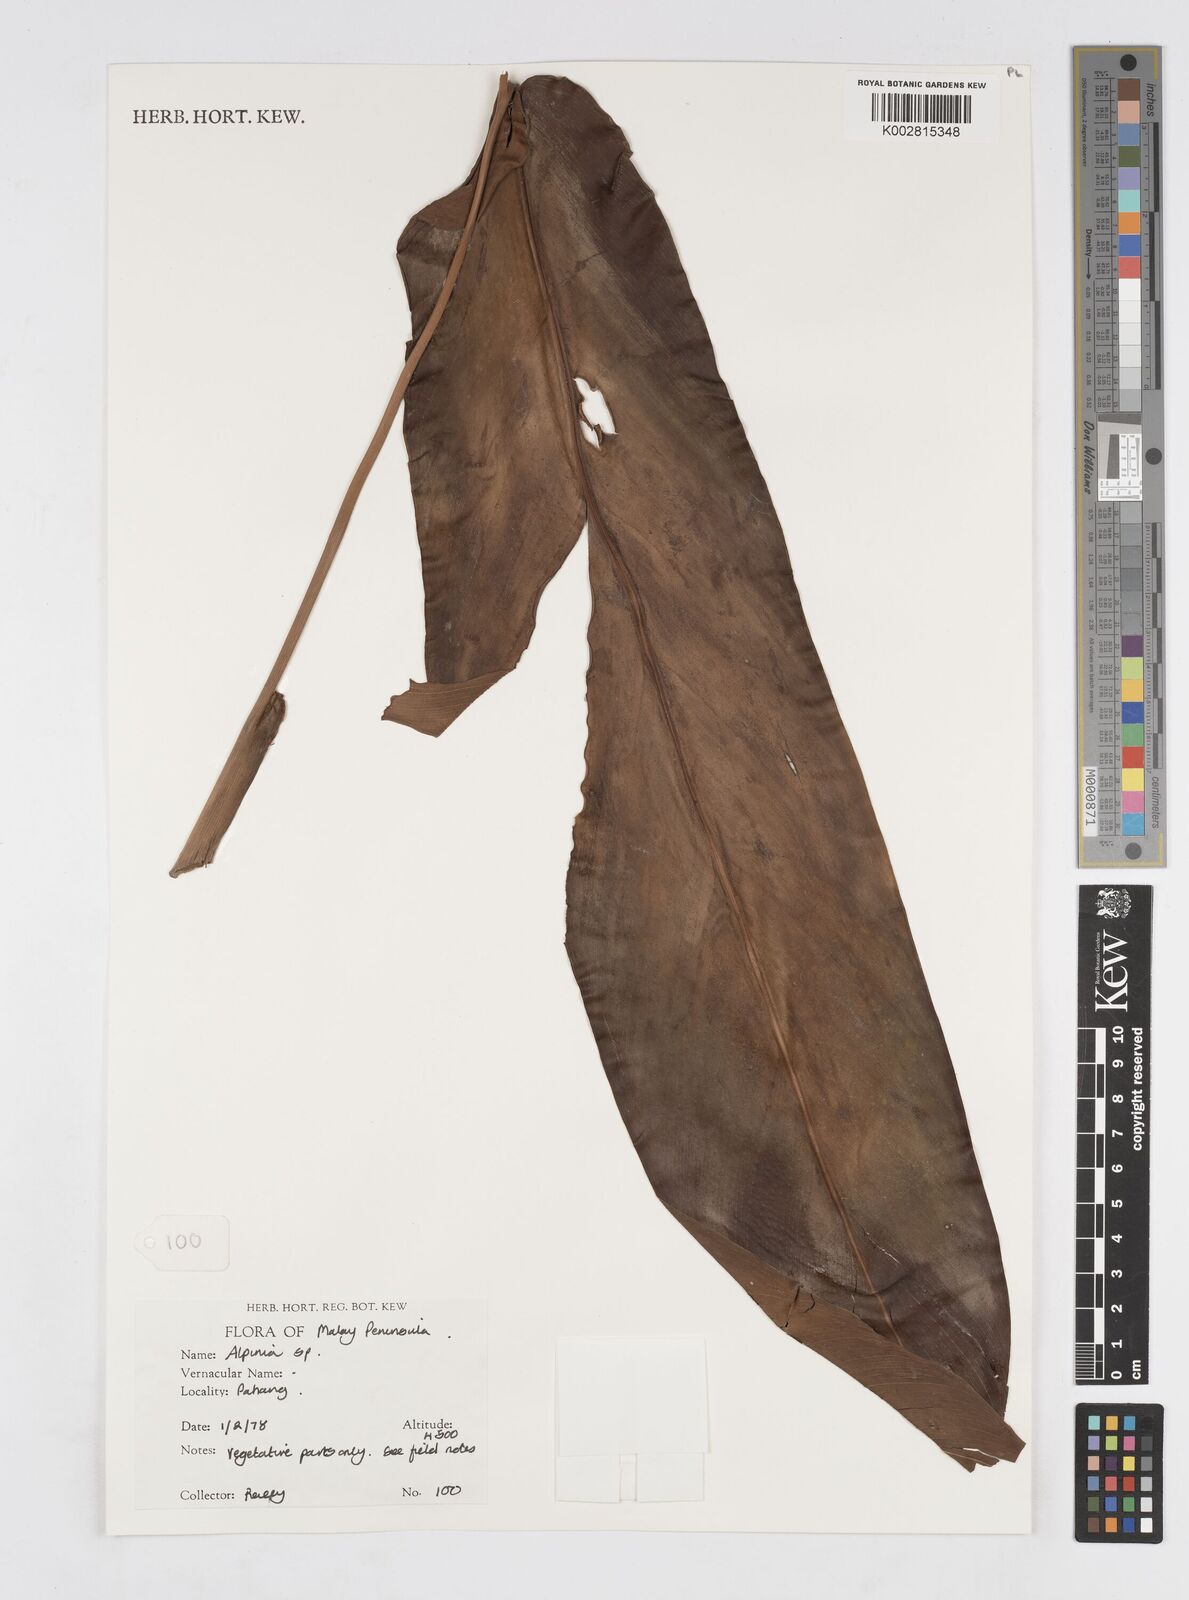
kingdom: Plantae
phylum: Tracheophyta
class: Liliopsida
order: Zingiberales
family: Zingiberaceae
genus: Alpinia
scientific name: Alpinia
